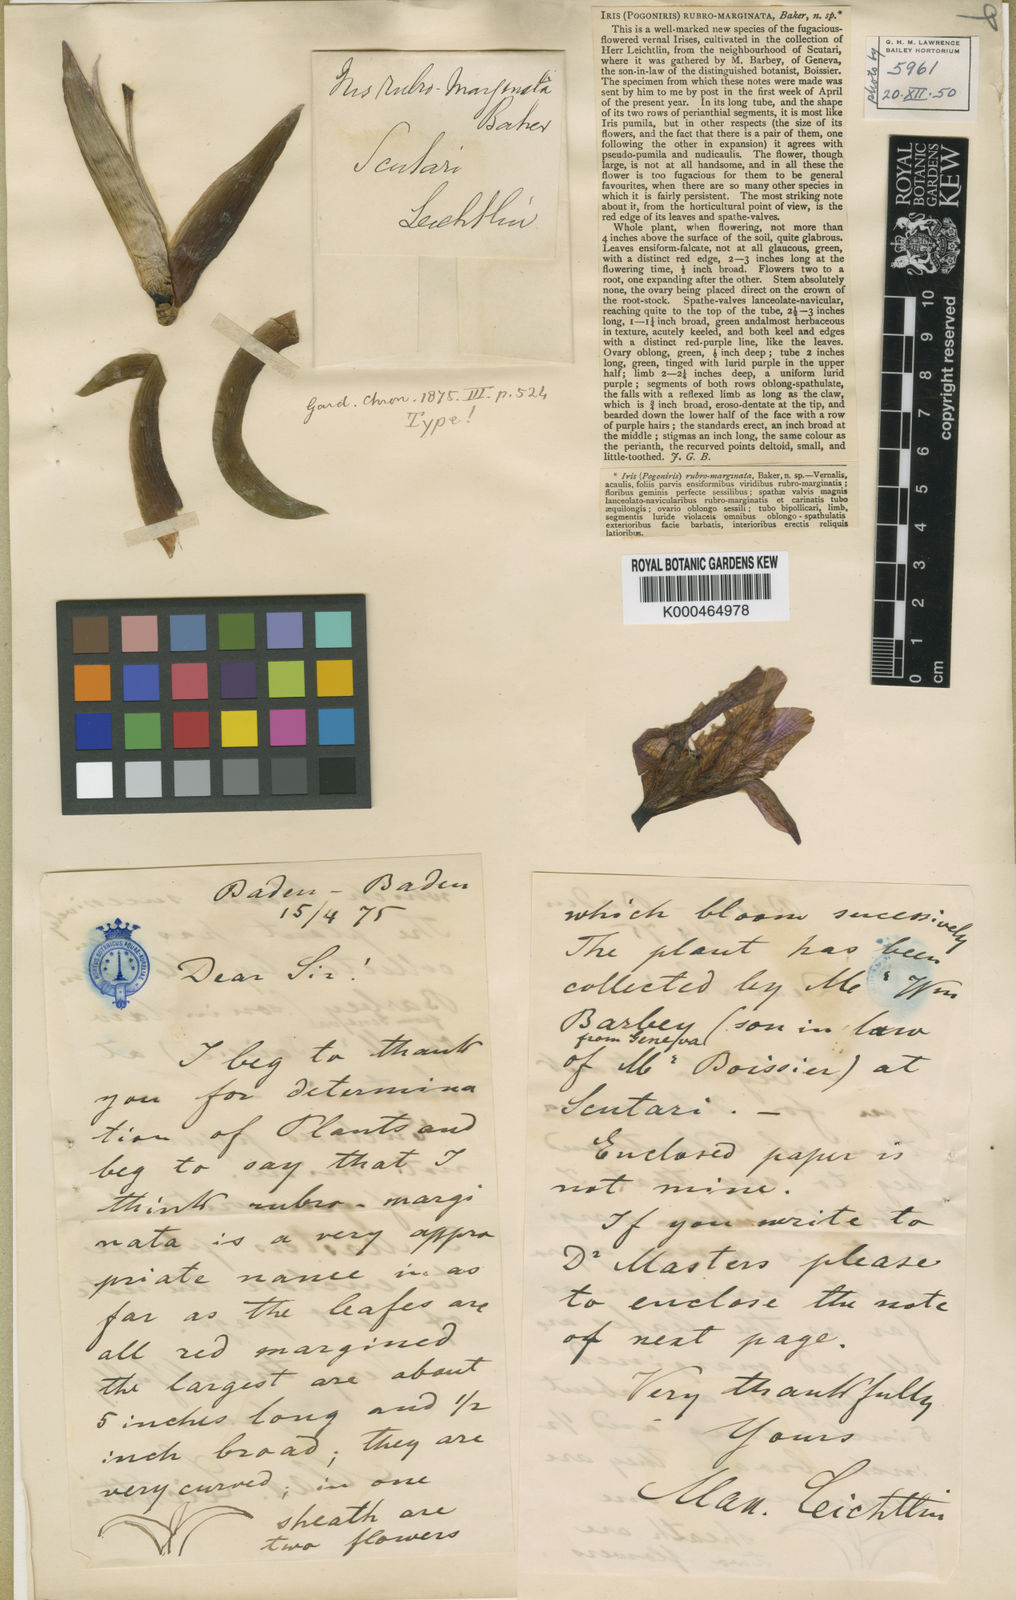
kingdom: Plantae
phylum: Tracheophyta
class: Liliopsida
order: Asparagales
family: Iridaceae
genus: Iris
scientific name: Iris suaveolens
